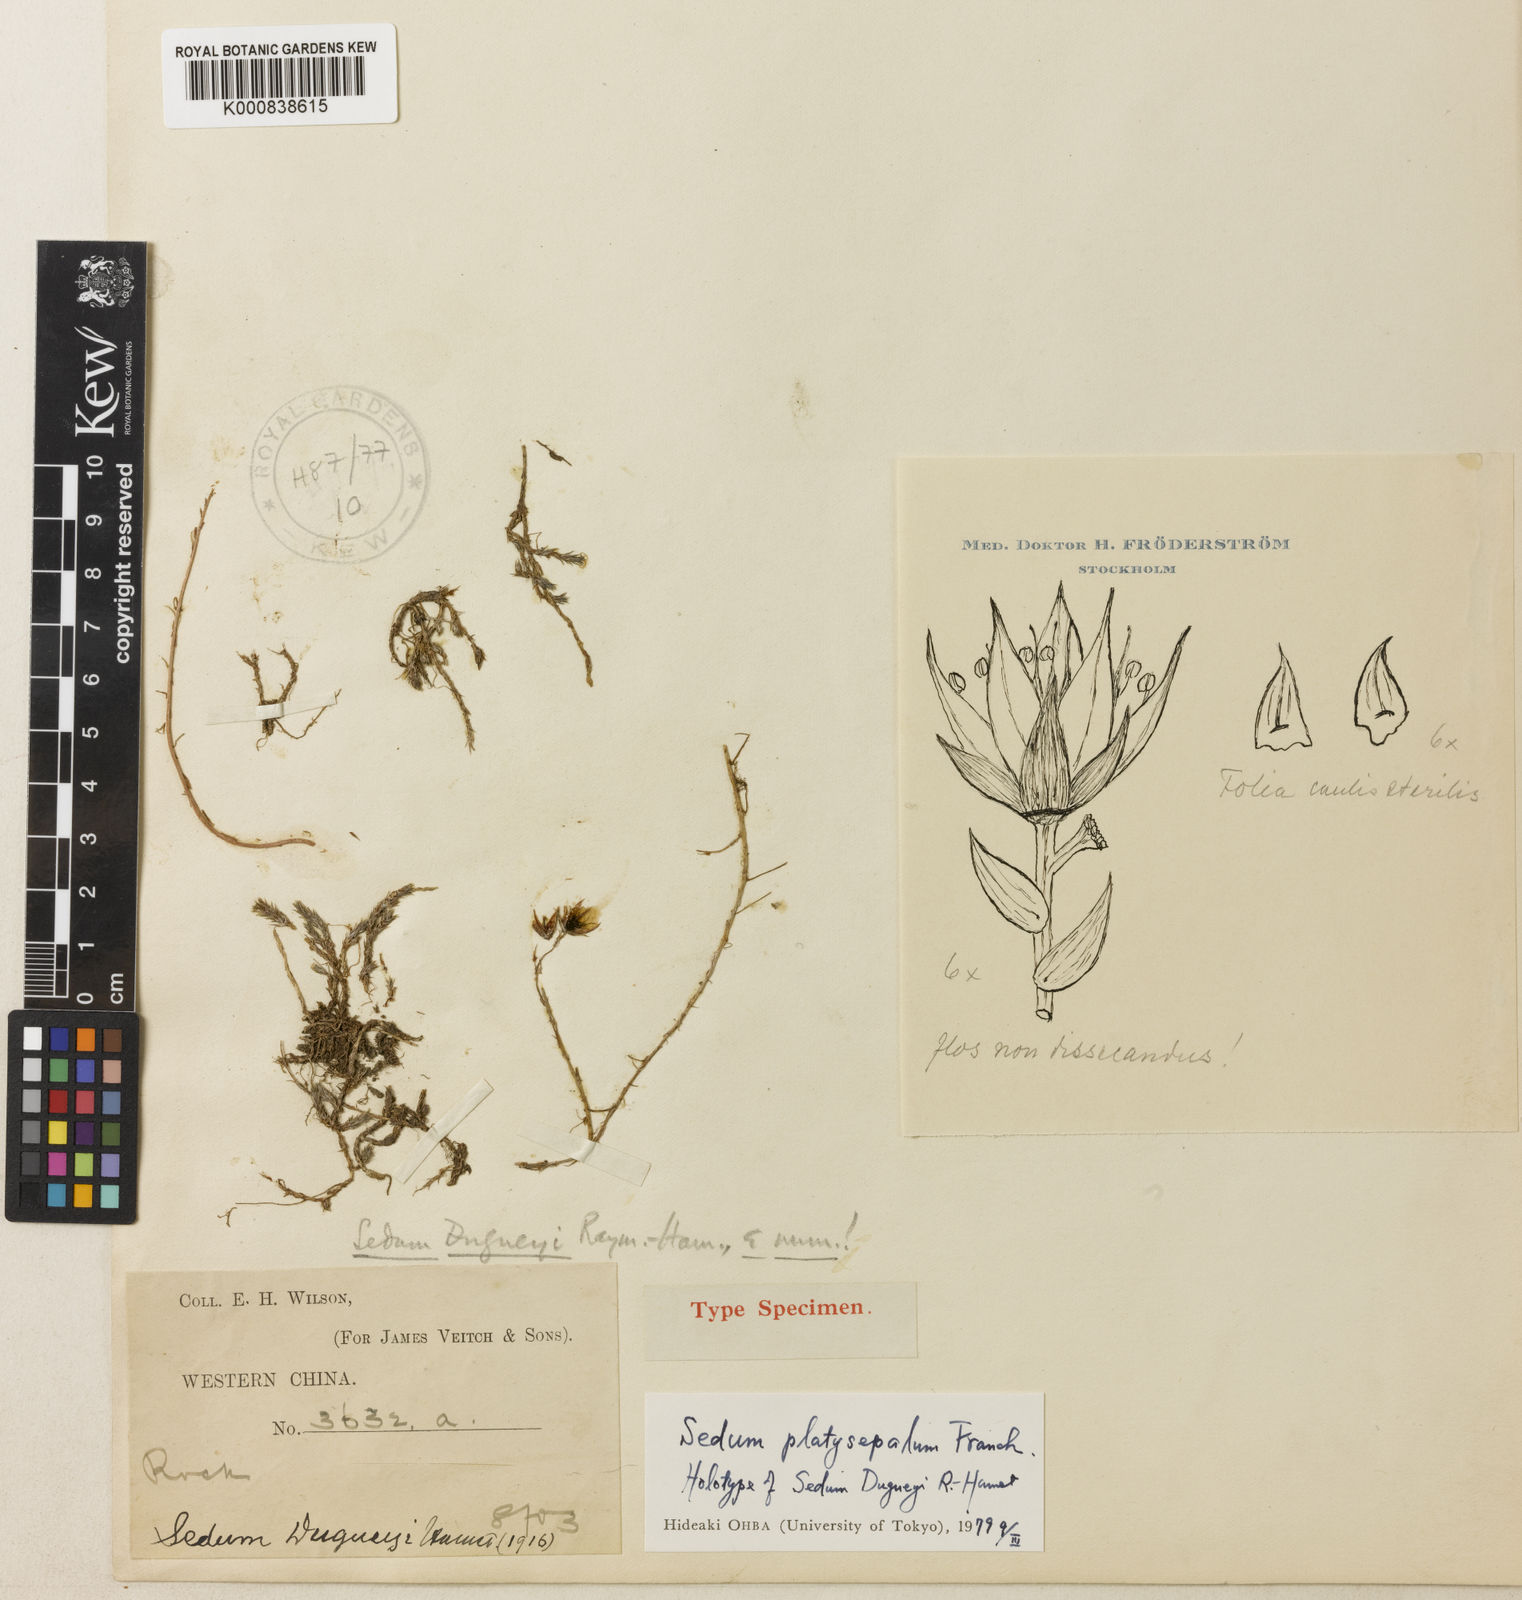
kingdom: Plantae
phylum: Tracheophyta
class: Magnoliopsida
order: Saxifragales
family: Crassulaceae
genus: Sedum
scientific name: Sedum platysepalum
